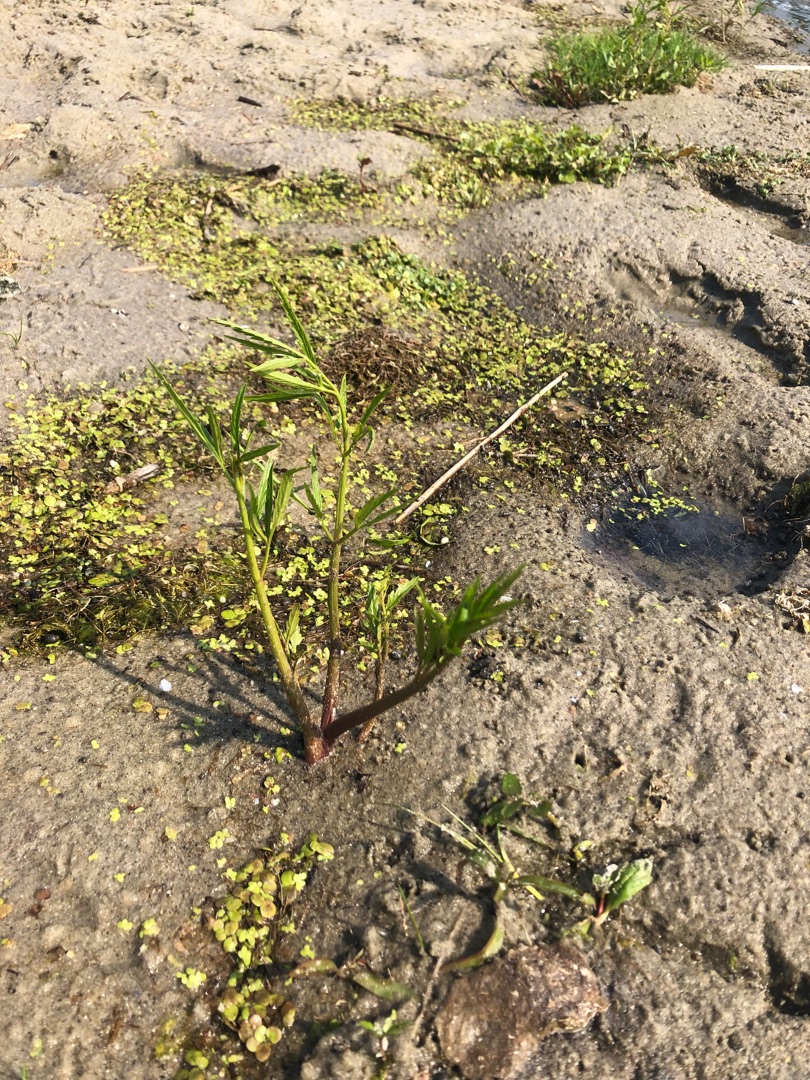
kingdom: Plantae
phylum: Tracheophyta
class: Magnoliopsida
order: Apiales
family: Apiaceae
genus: Cicuta
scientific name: Cicuta virosa
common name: Gifttyde
